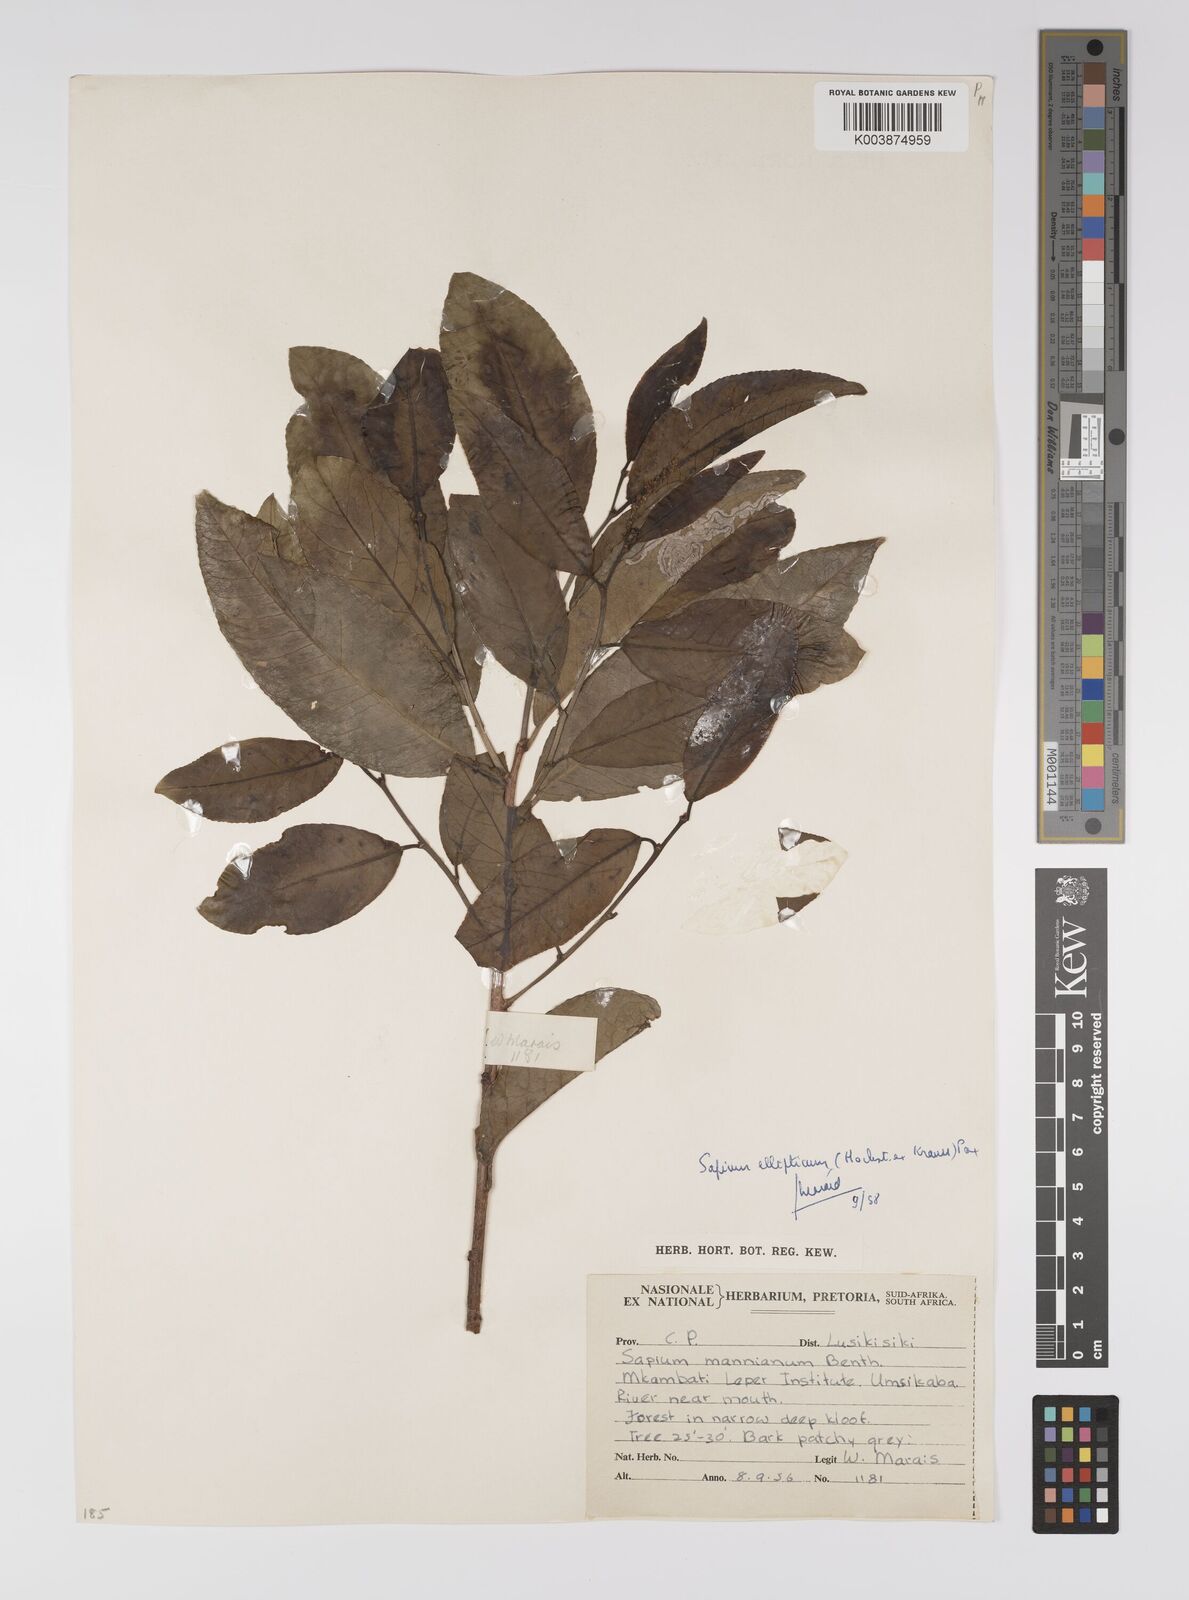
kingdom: Plantae
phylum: Tracheophyta
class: Magnoliopsida
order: Malpighiales
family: Euphorbiaceae
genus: Shirakiopsis
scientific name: Shirakiopsis elliptica
